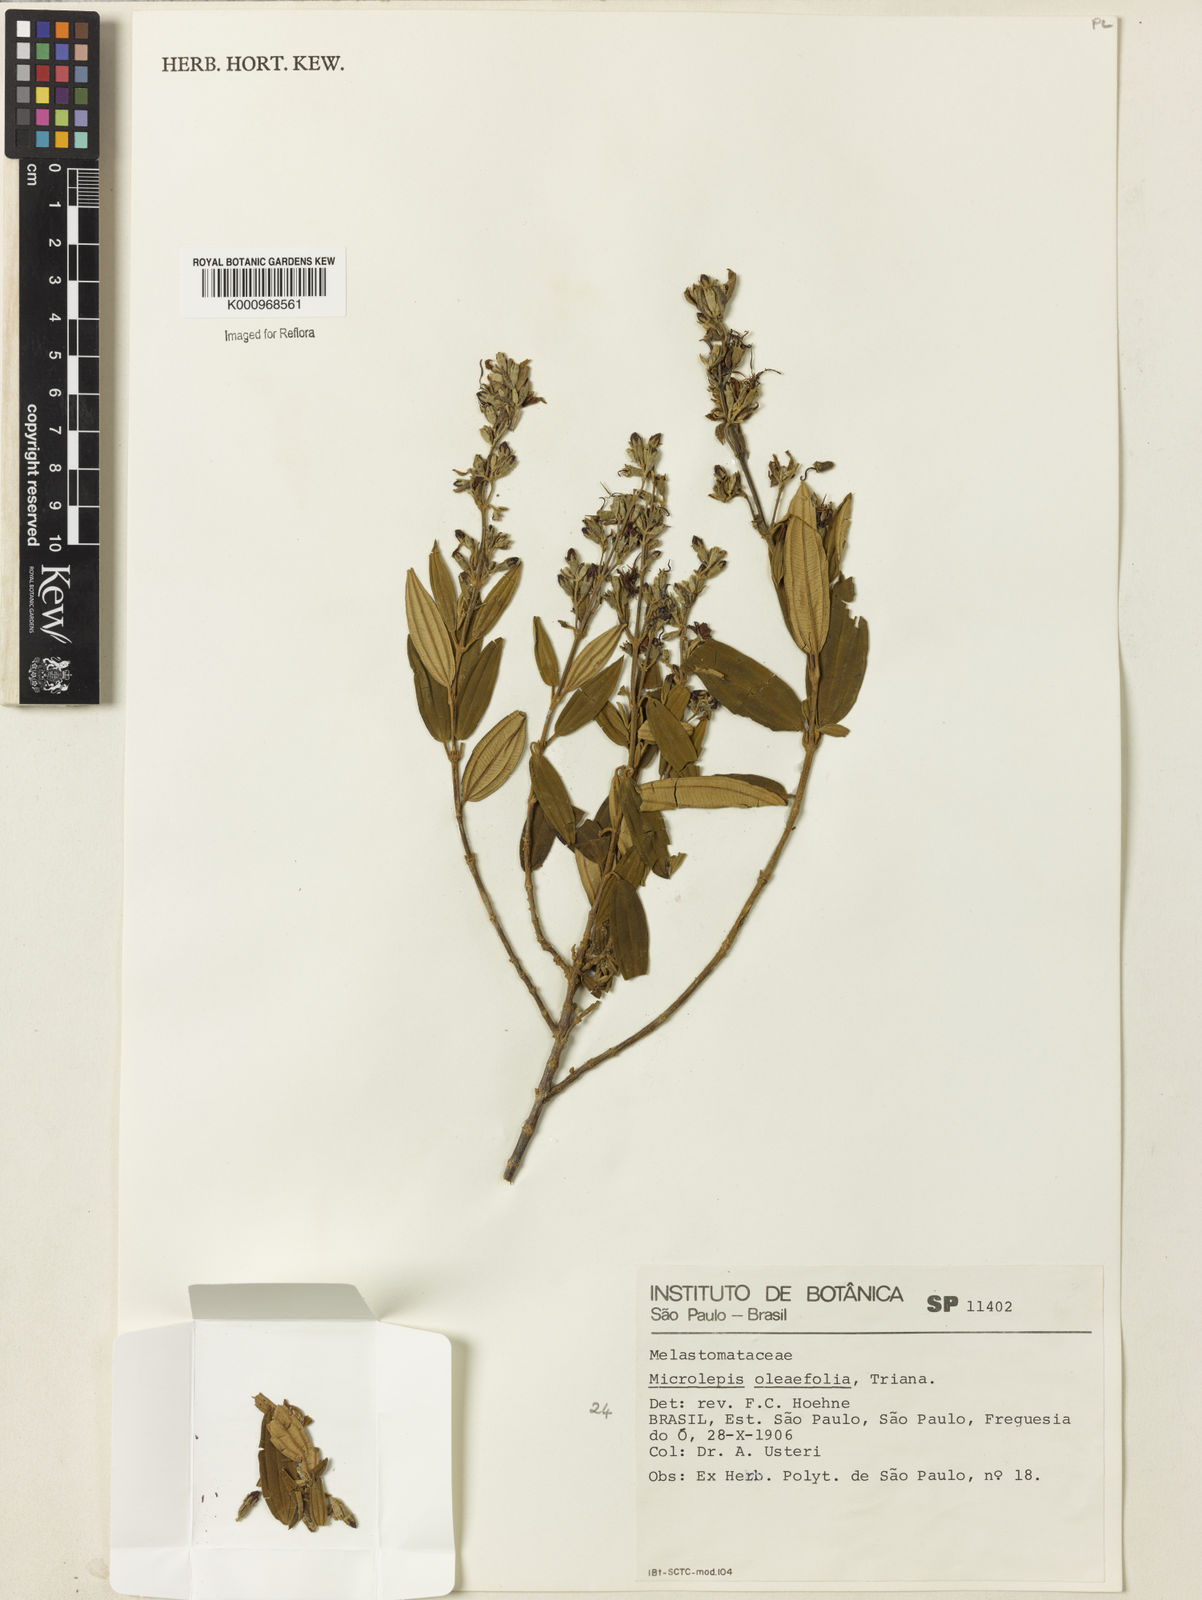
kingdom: Plantae
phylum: Tracheophyta
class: Magnoliopsida
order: Myrtales
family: Melastomataceae
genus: Pleroma
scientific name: Pleroma oleifolia
